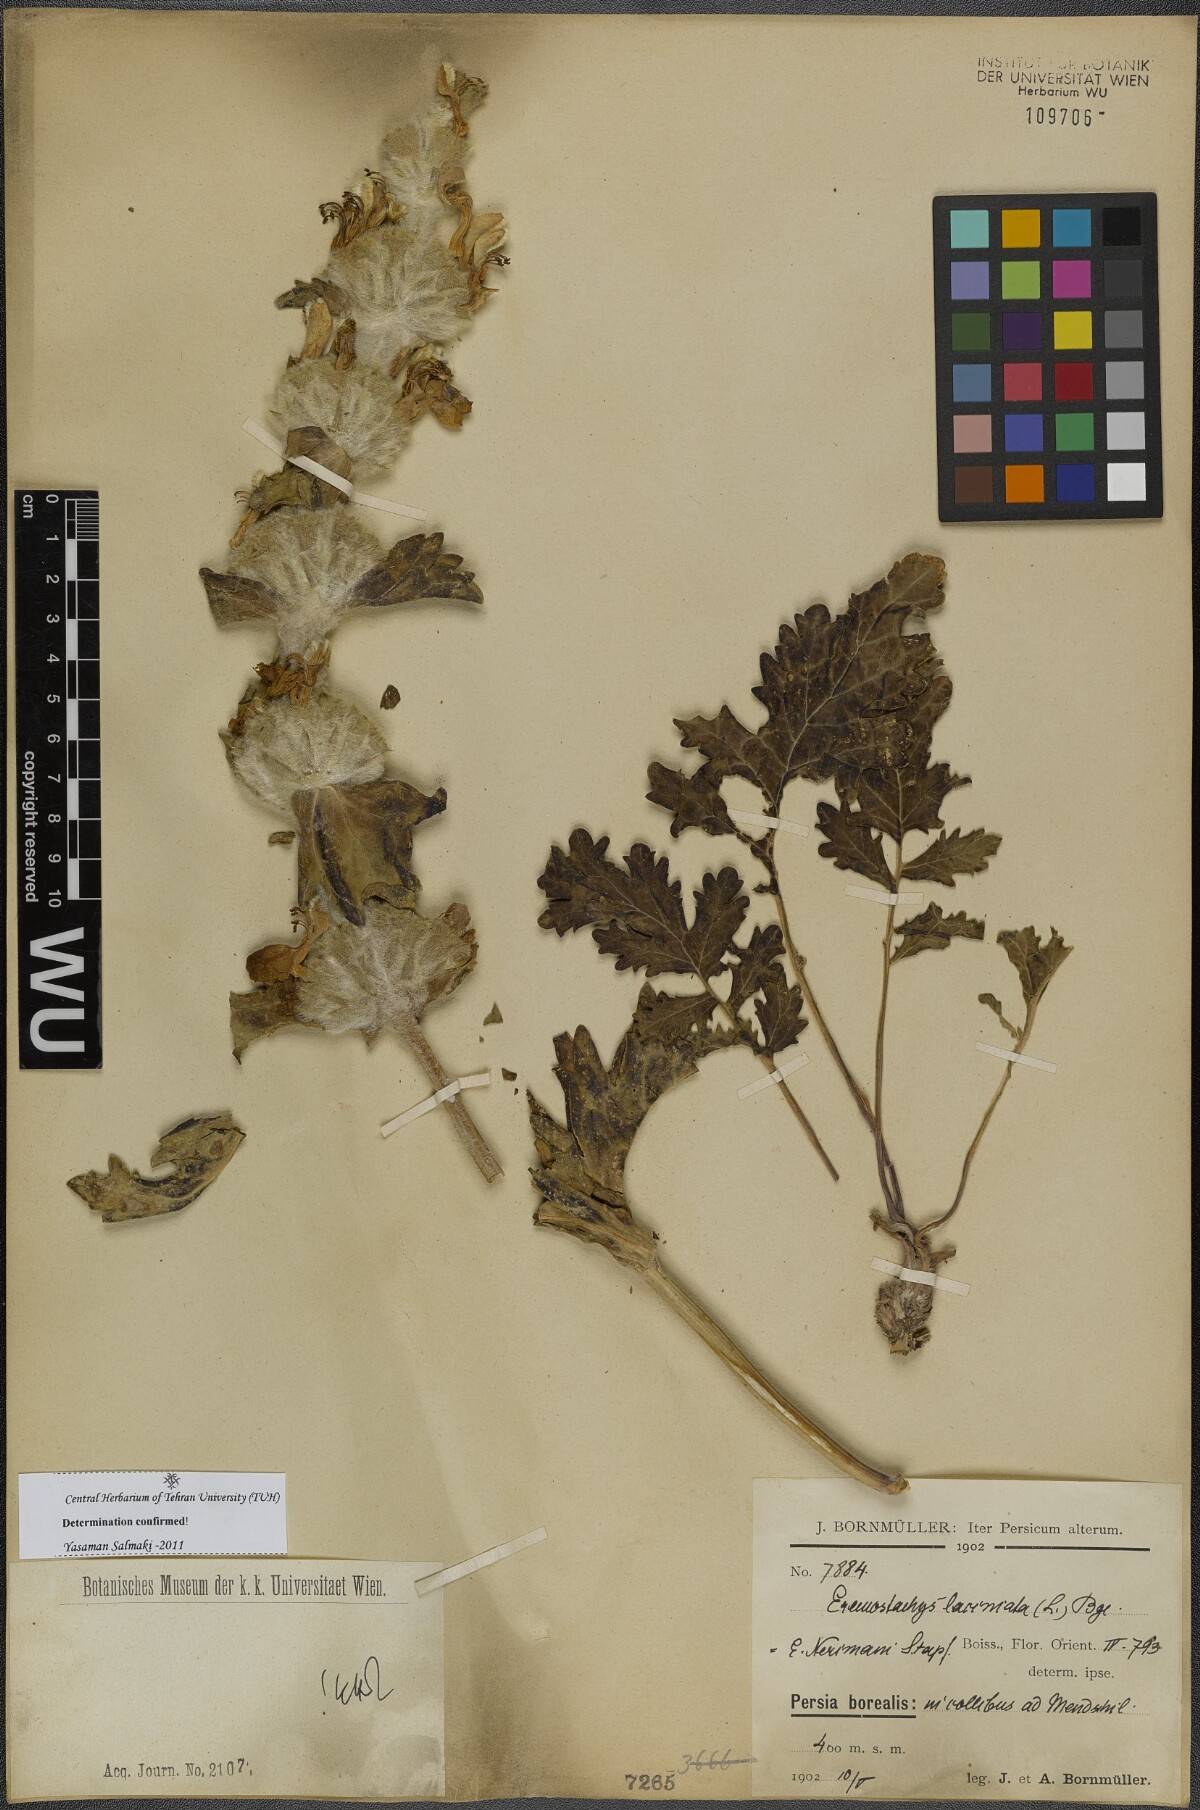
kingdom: Plantae
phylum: Tracheophyta
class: Magnoliopsida
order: Lamiales
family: Lamiaceae
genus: Phlomoides
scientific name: Phlomoides laciniata
